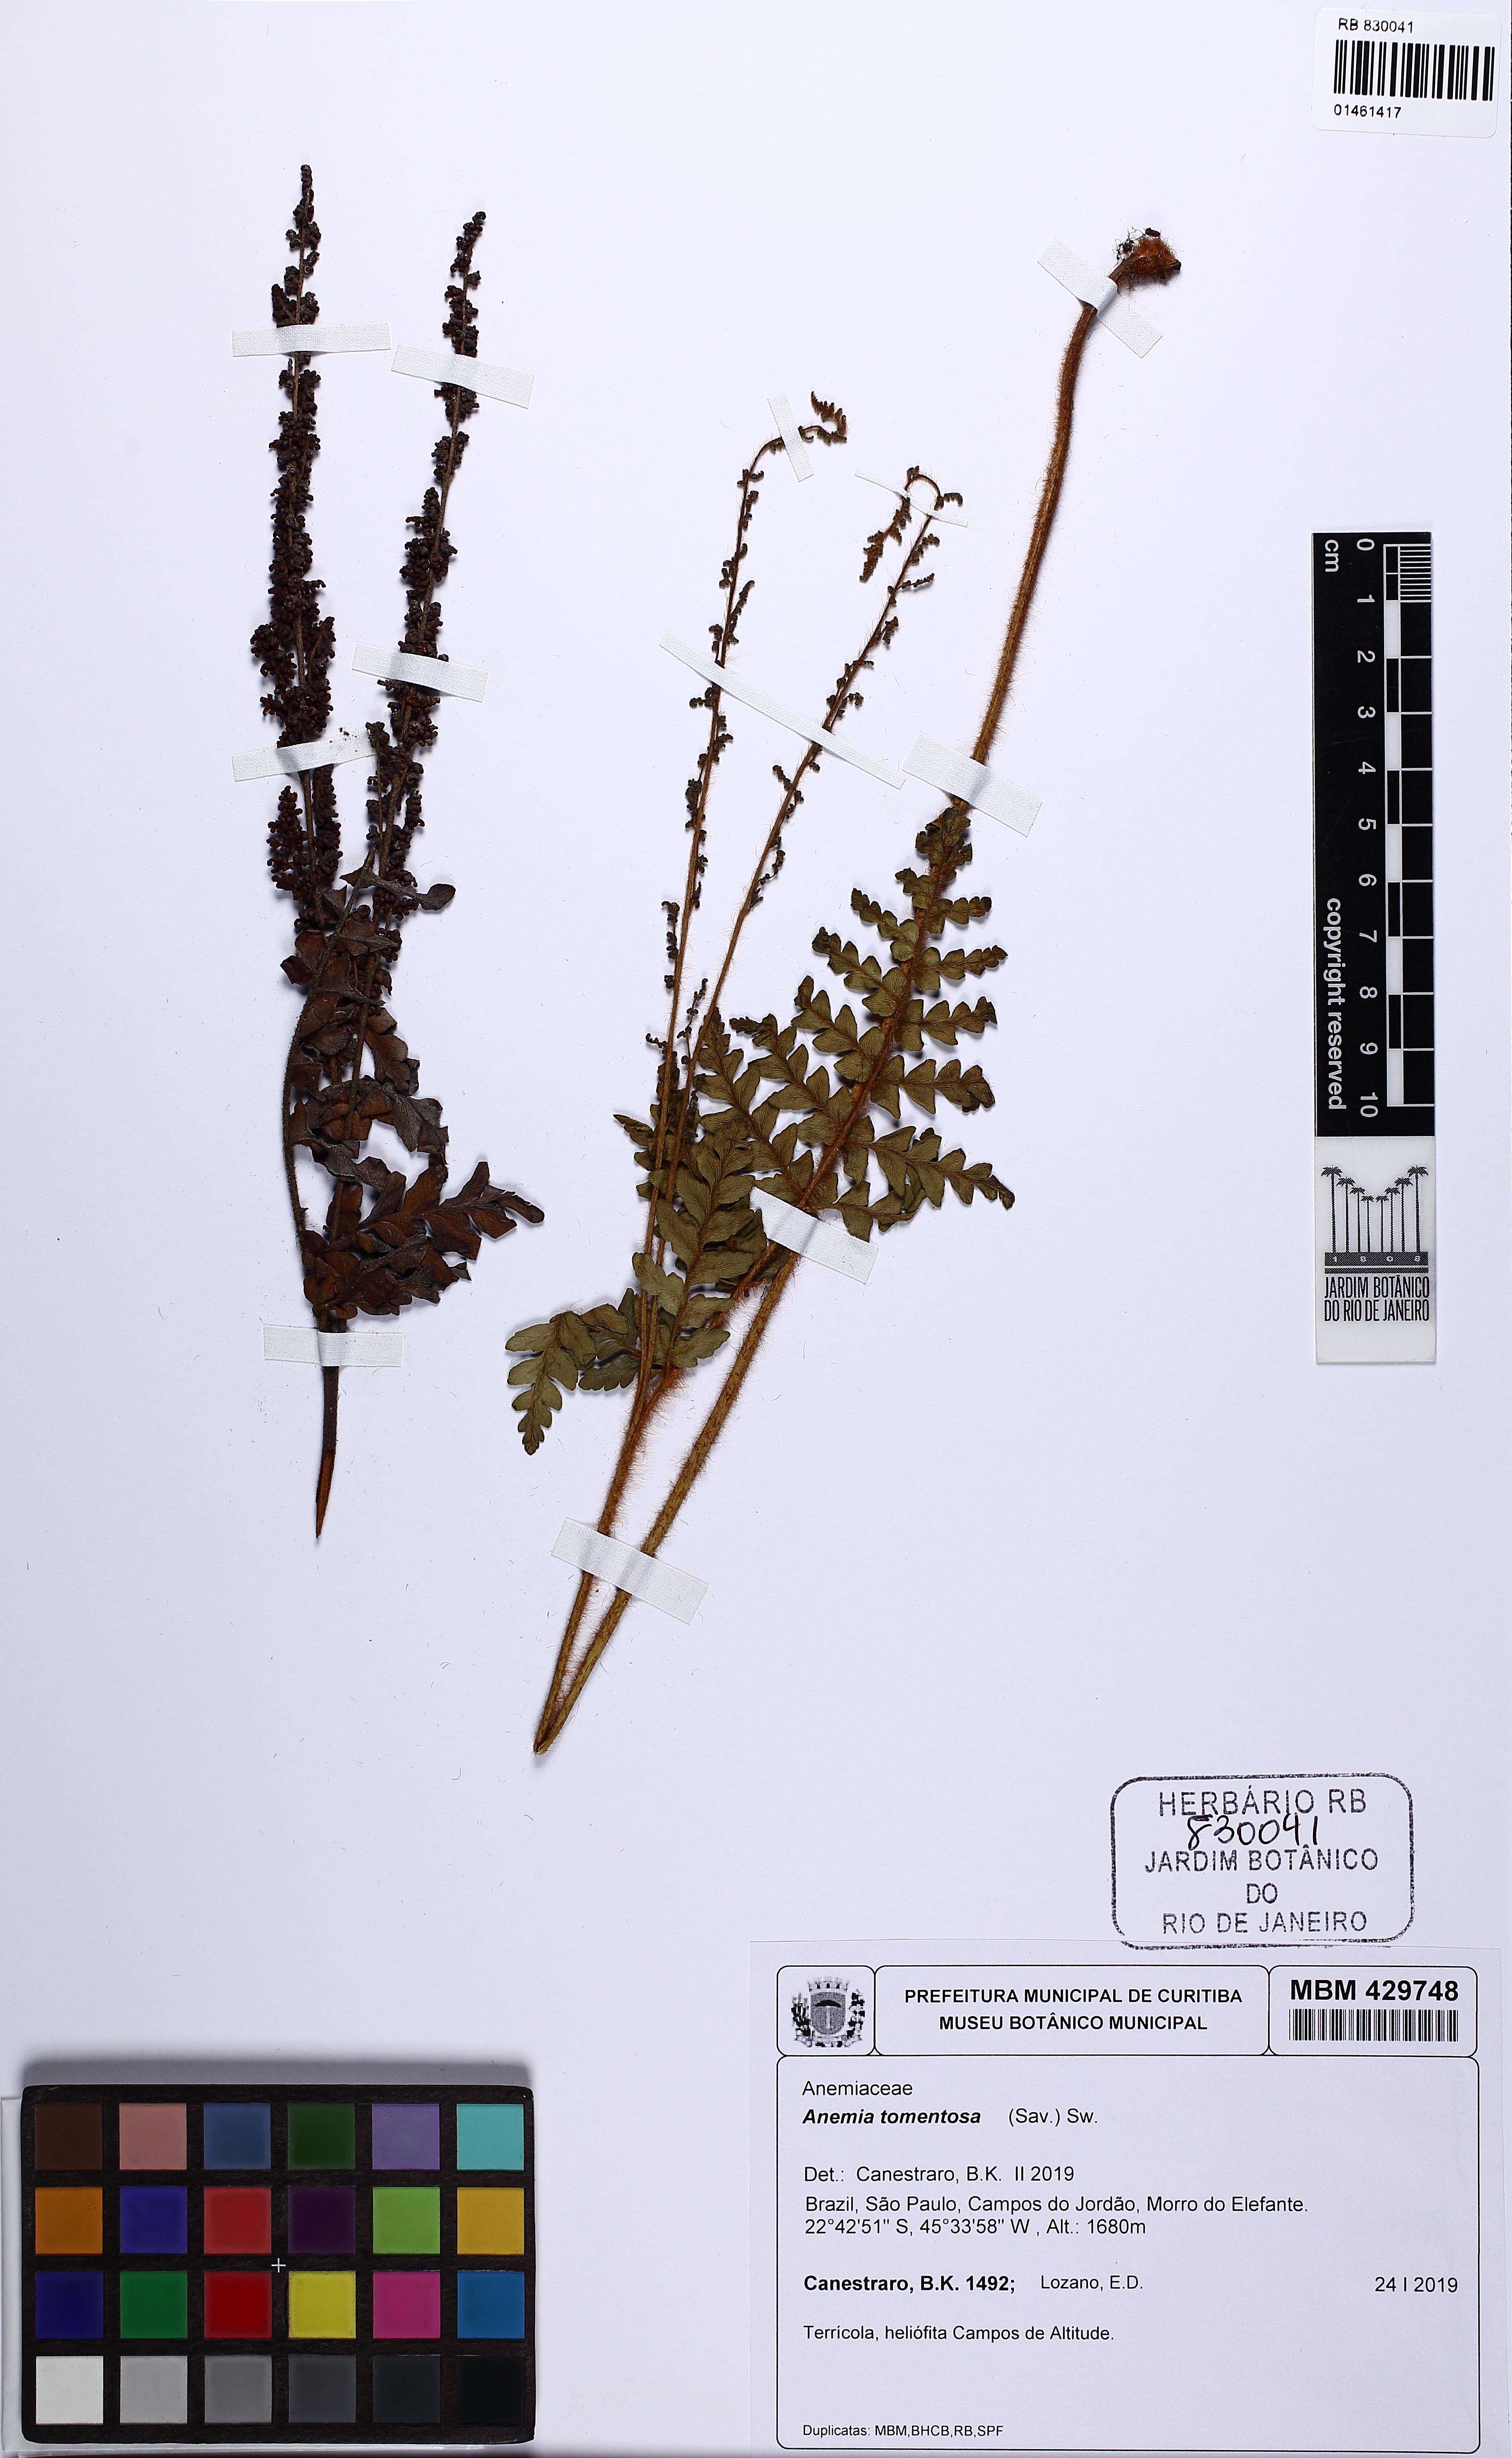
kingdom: Plantae
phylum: Tracheophyta
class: Polypodiopsida
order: Schizaeales
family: Anemiaceae
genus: Anemia
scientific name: Anemia tomentosa
